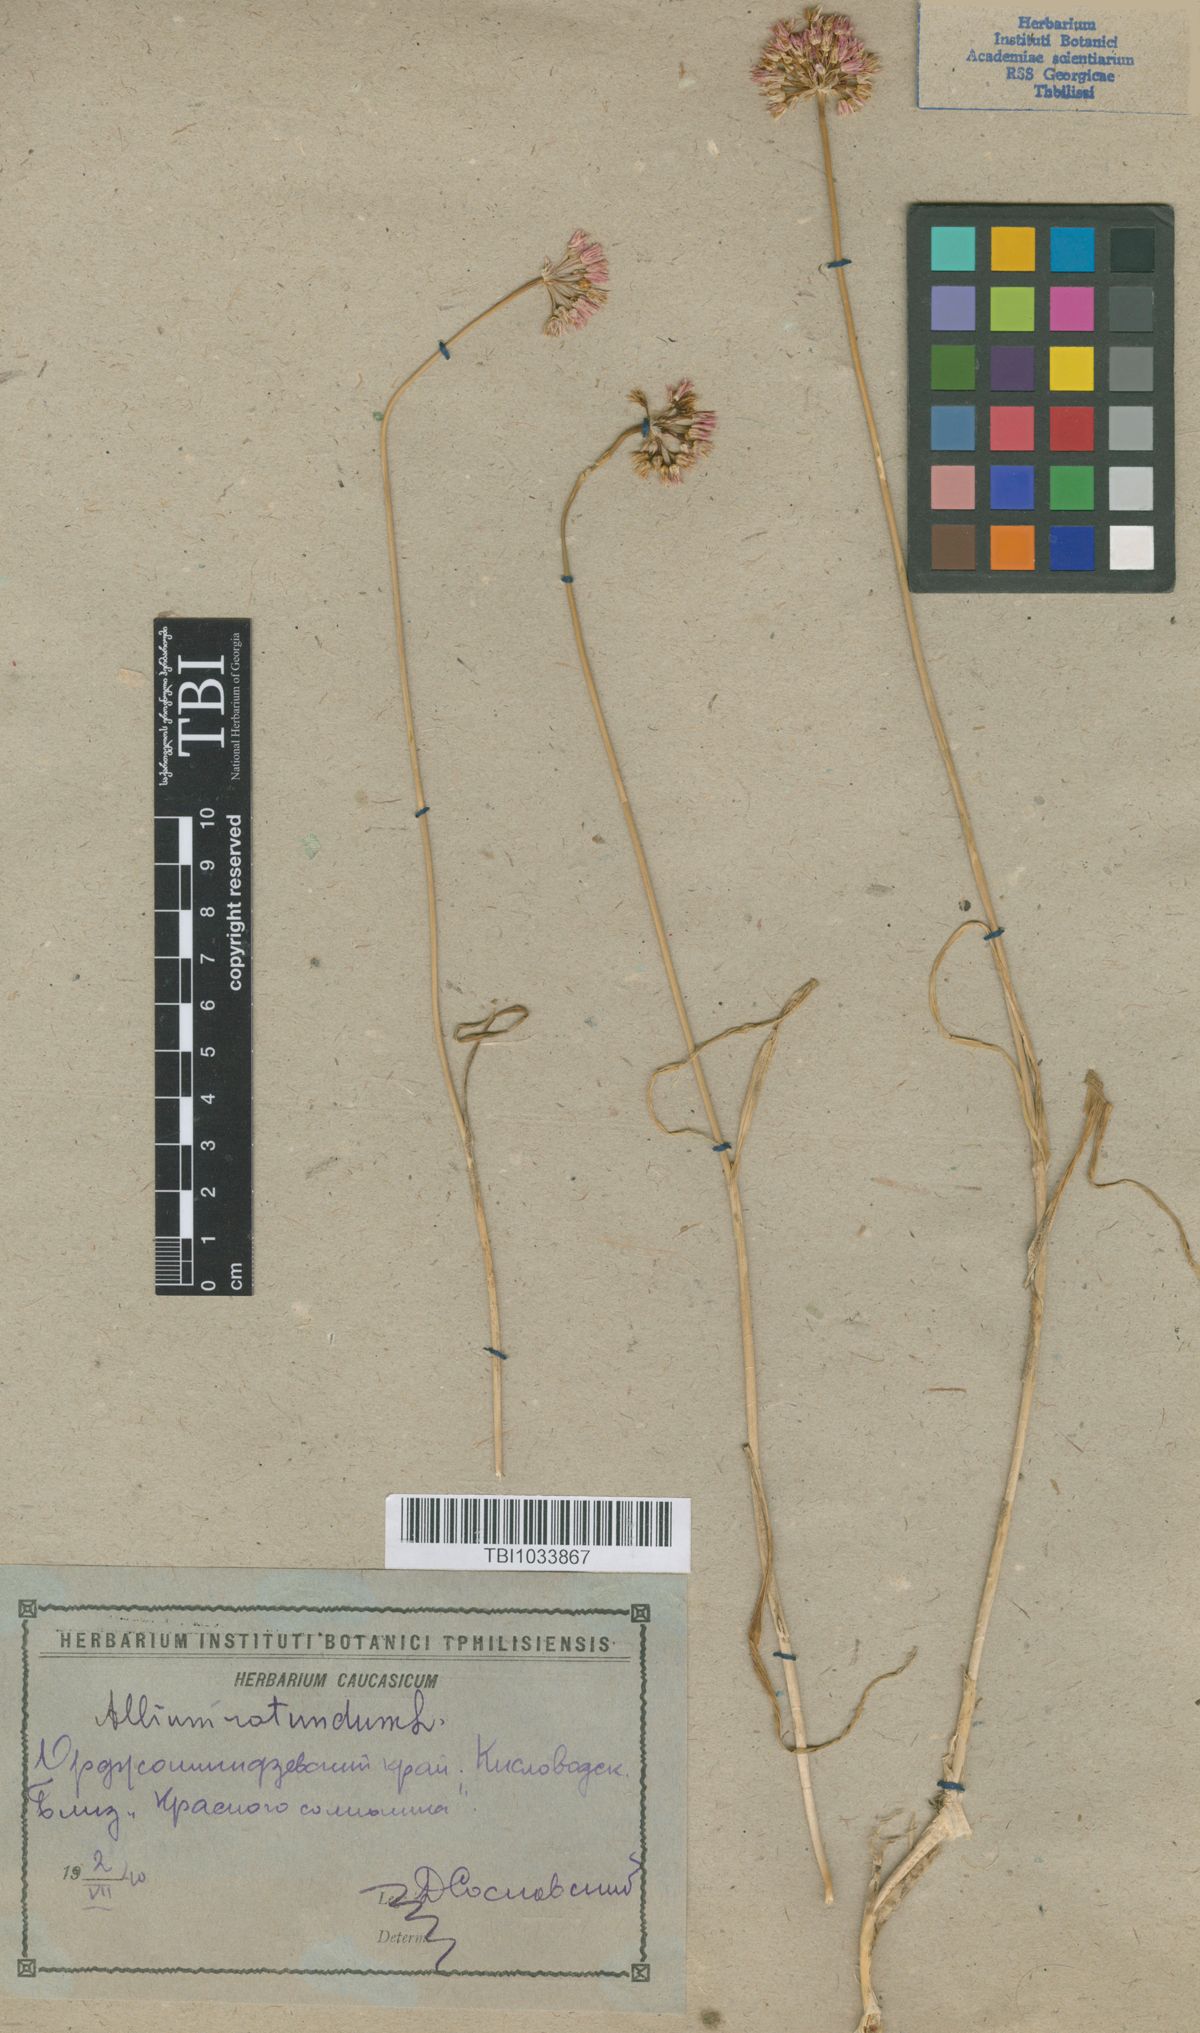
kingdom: Plantae
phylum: Tracheophyta
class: Liliopsida
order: Asparagales
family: Amaryllidaceae
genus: Allium
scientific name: Allium rotundum
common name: Sand leek
